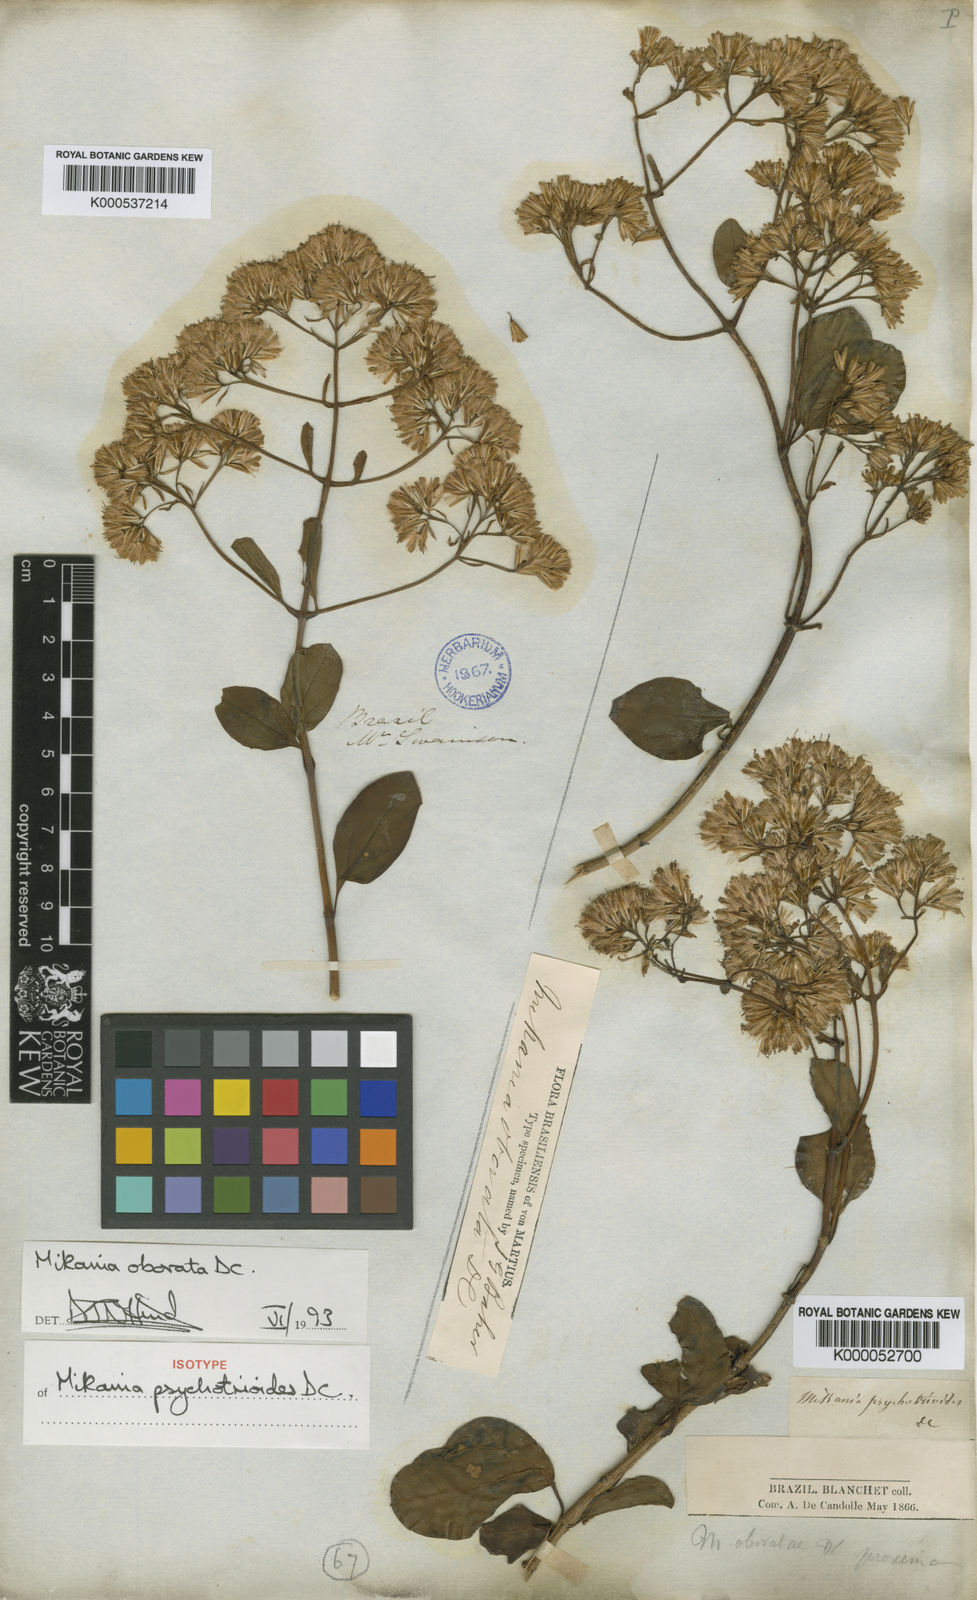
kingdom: Plantae
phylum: Tracheophyta
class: Magnoliopsida
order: Asterales
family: Asteraceae
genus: Mikania
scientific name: Mikania obovata
